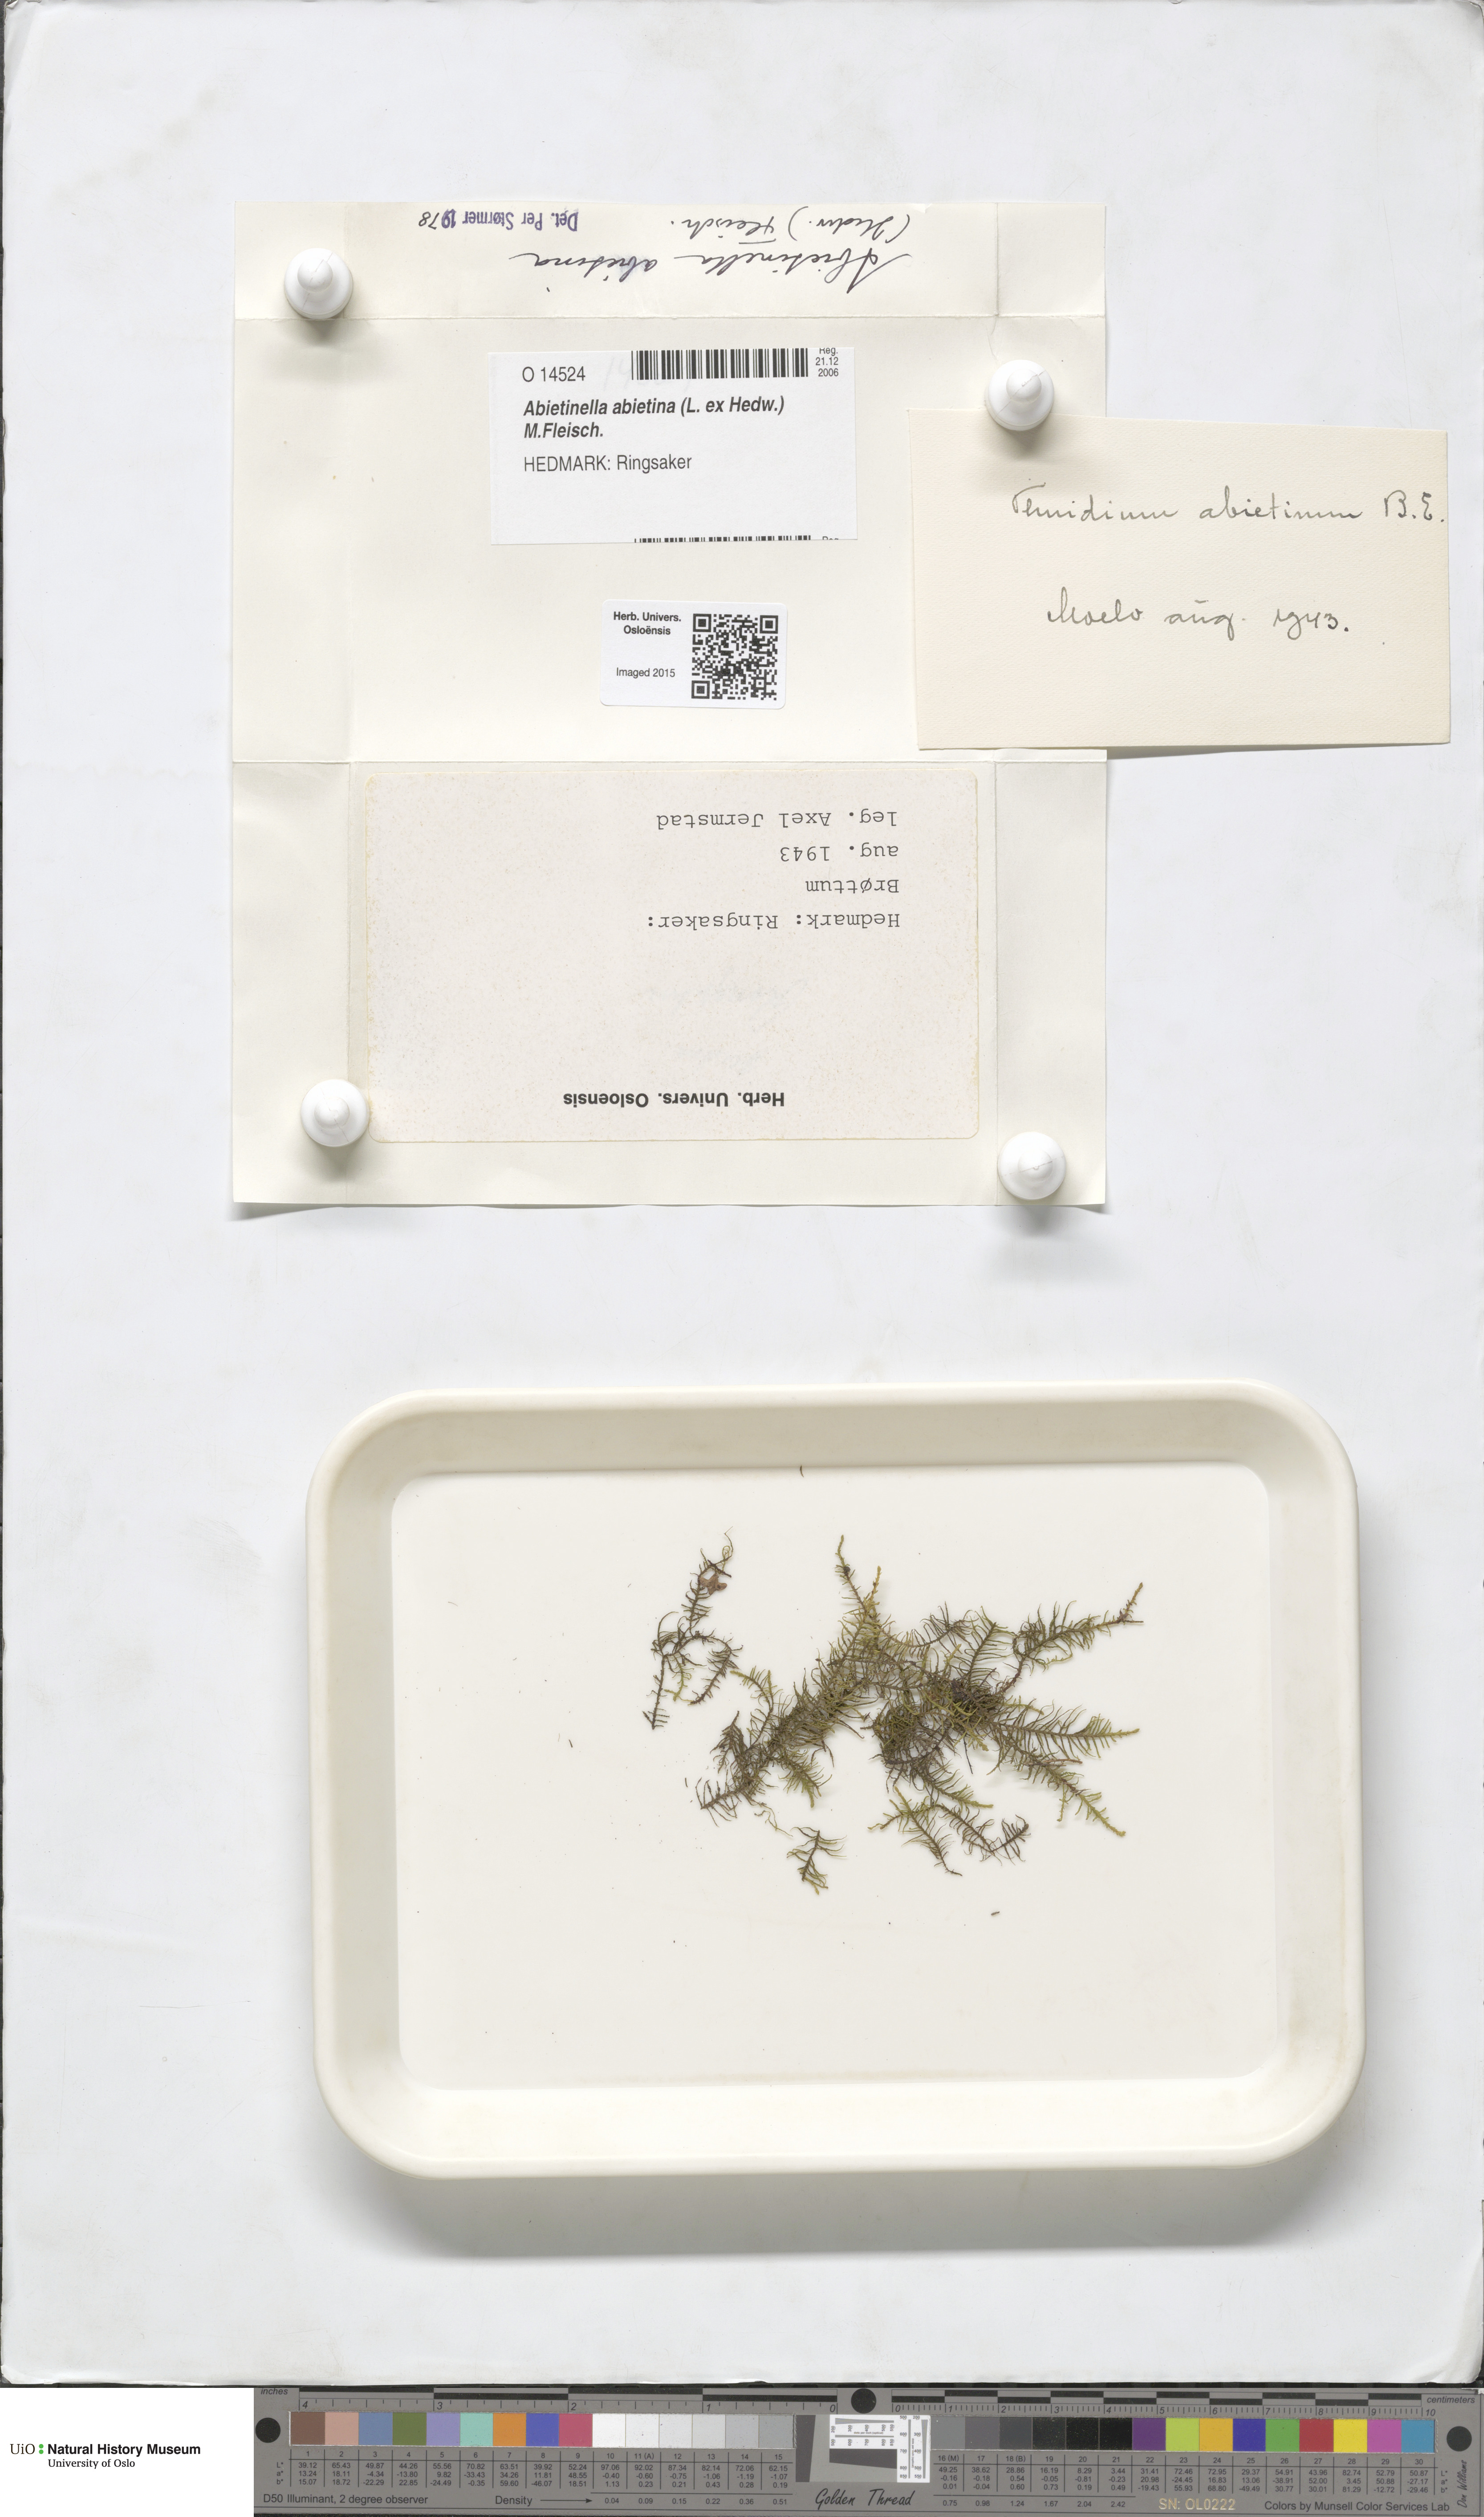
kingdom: Plantae
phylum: Bryophyta
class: Bryopsida
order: Hypnales
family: Thuidiaceae
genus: Abietinella
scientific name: Abietinella abietina
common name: Wiry fern moss
